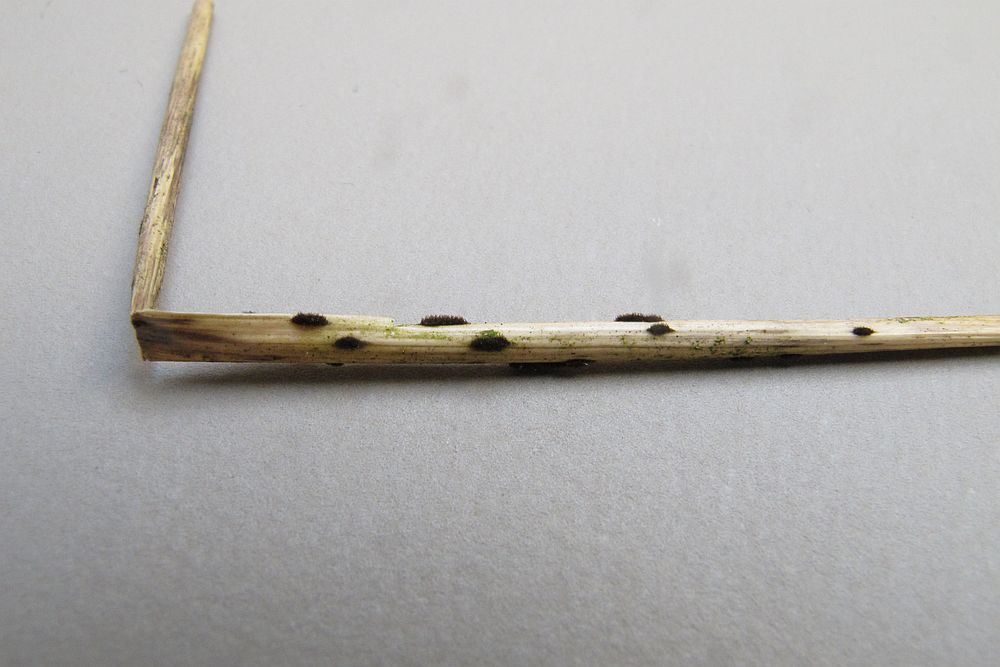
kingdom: Fungi
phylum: Ascomycota
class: Dothideomycetes
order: Pleosporales
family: Periconiaceae
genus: Periconia
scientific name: Periconia hispidula
